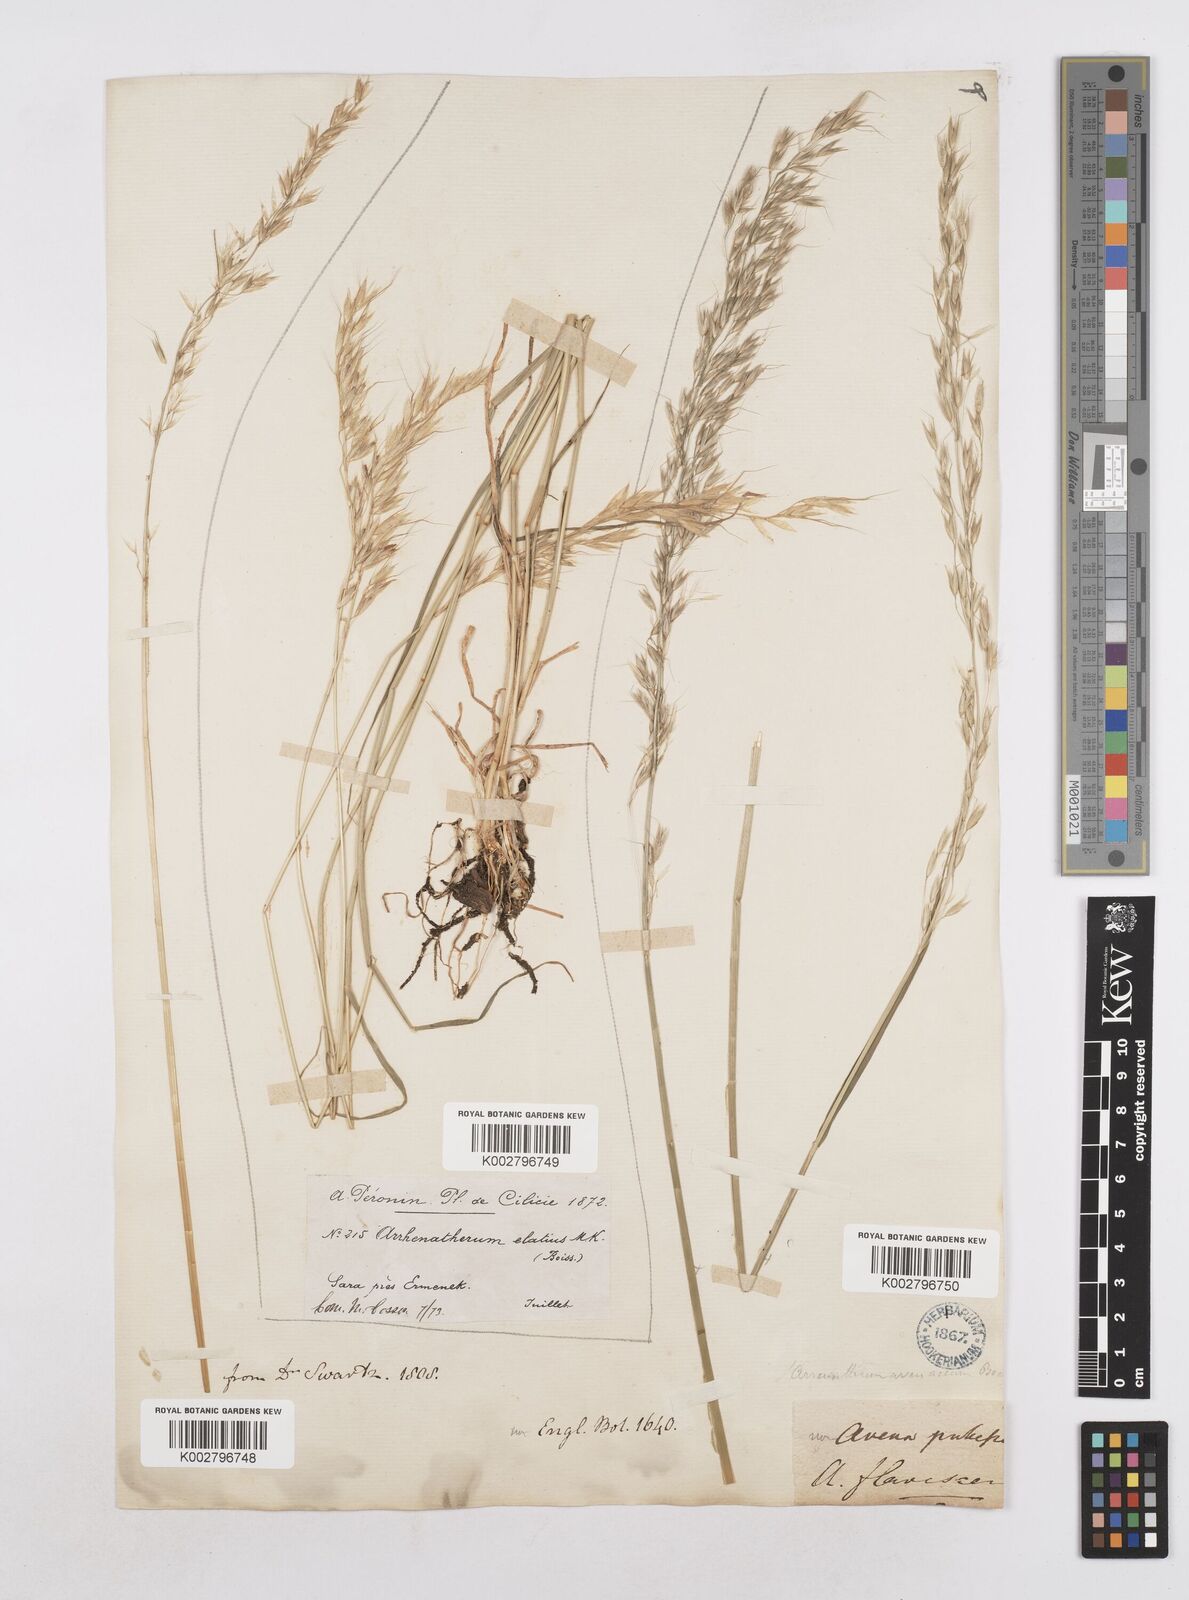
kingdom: Plantae
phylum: Tracheophyta
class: Liliopsida
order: Poales
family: Poaceae
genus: Arrhenatherum
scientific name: Arrhenatherum elatius
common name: Tall oatgrass
